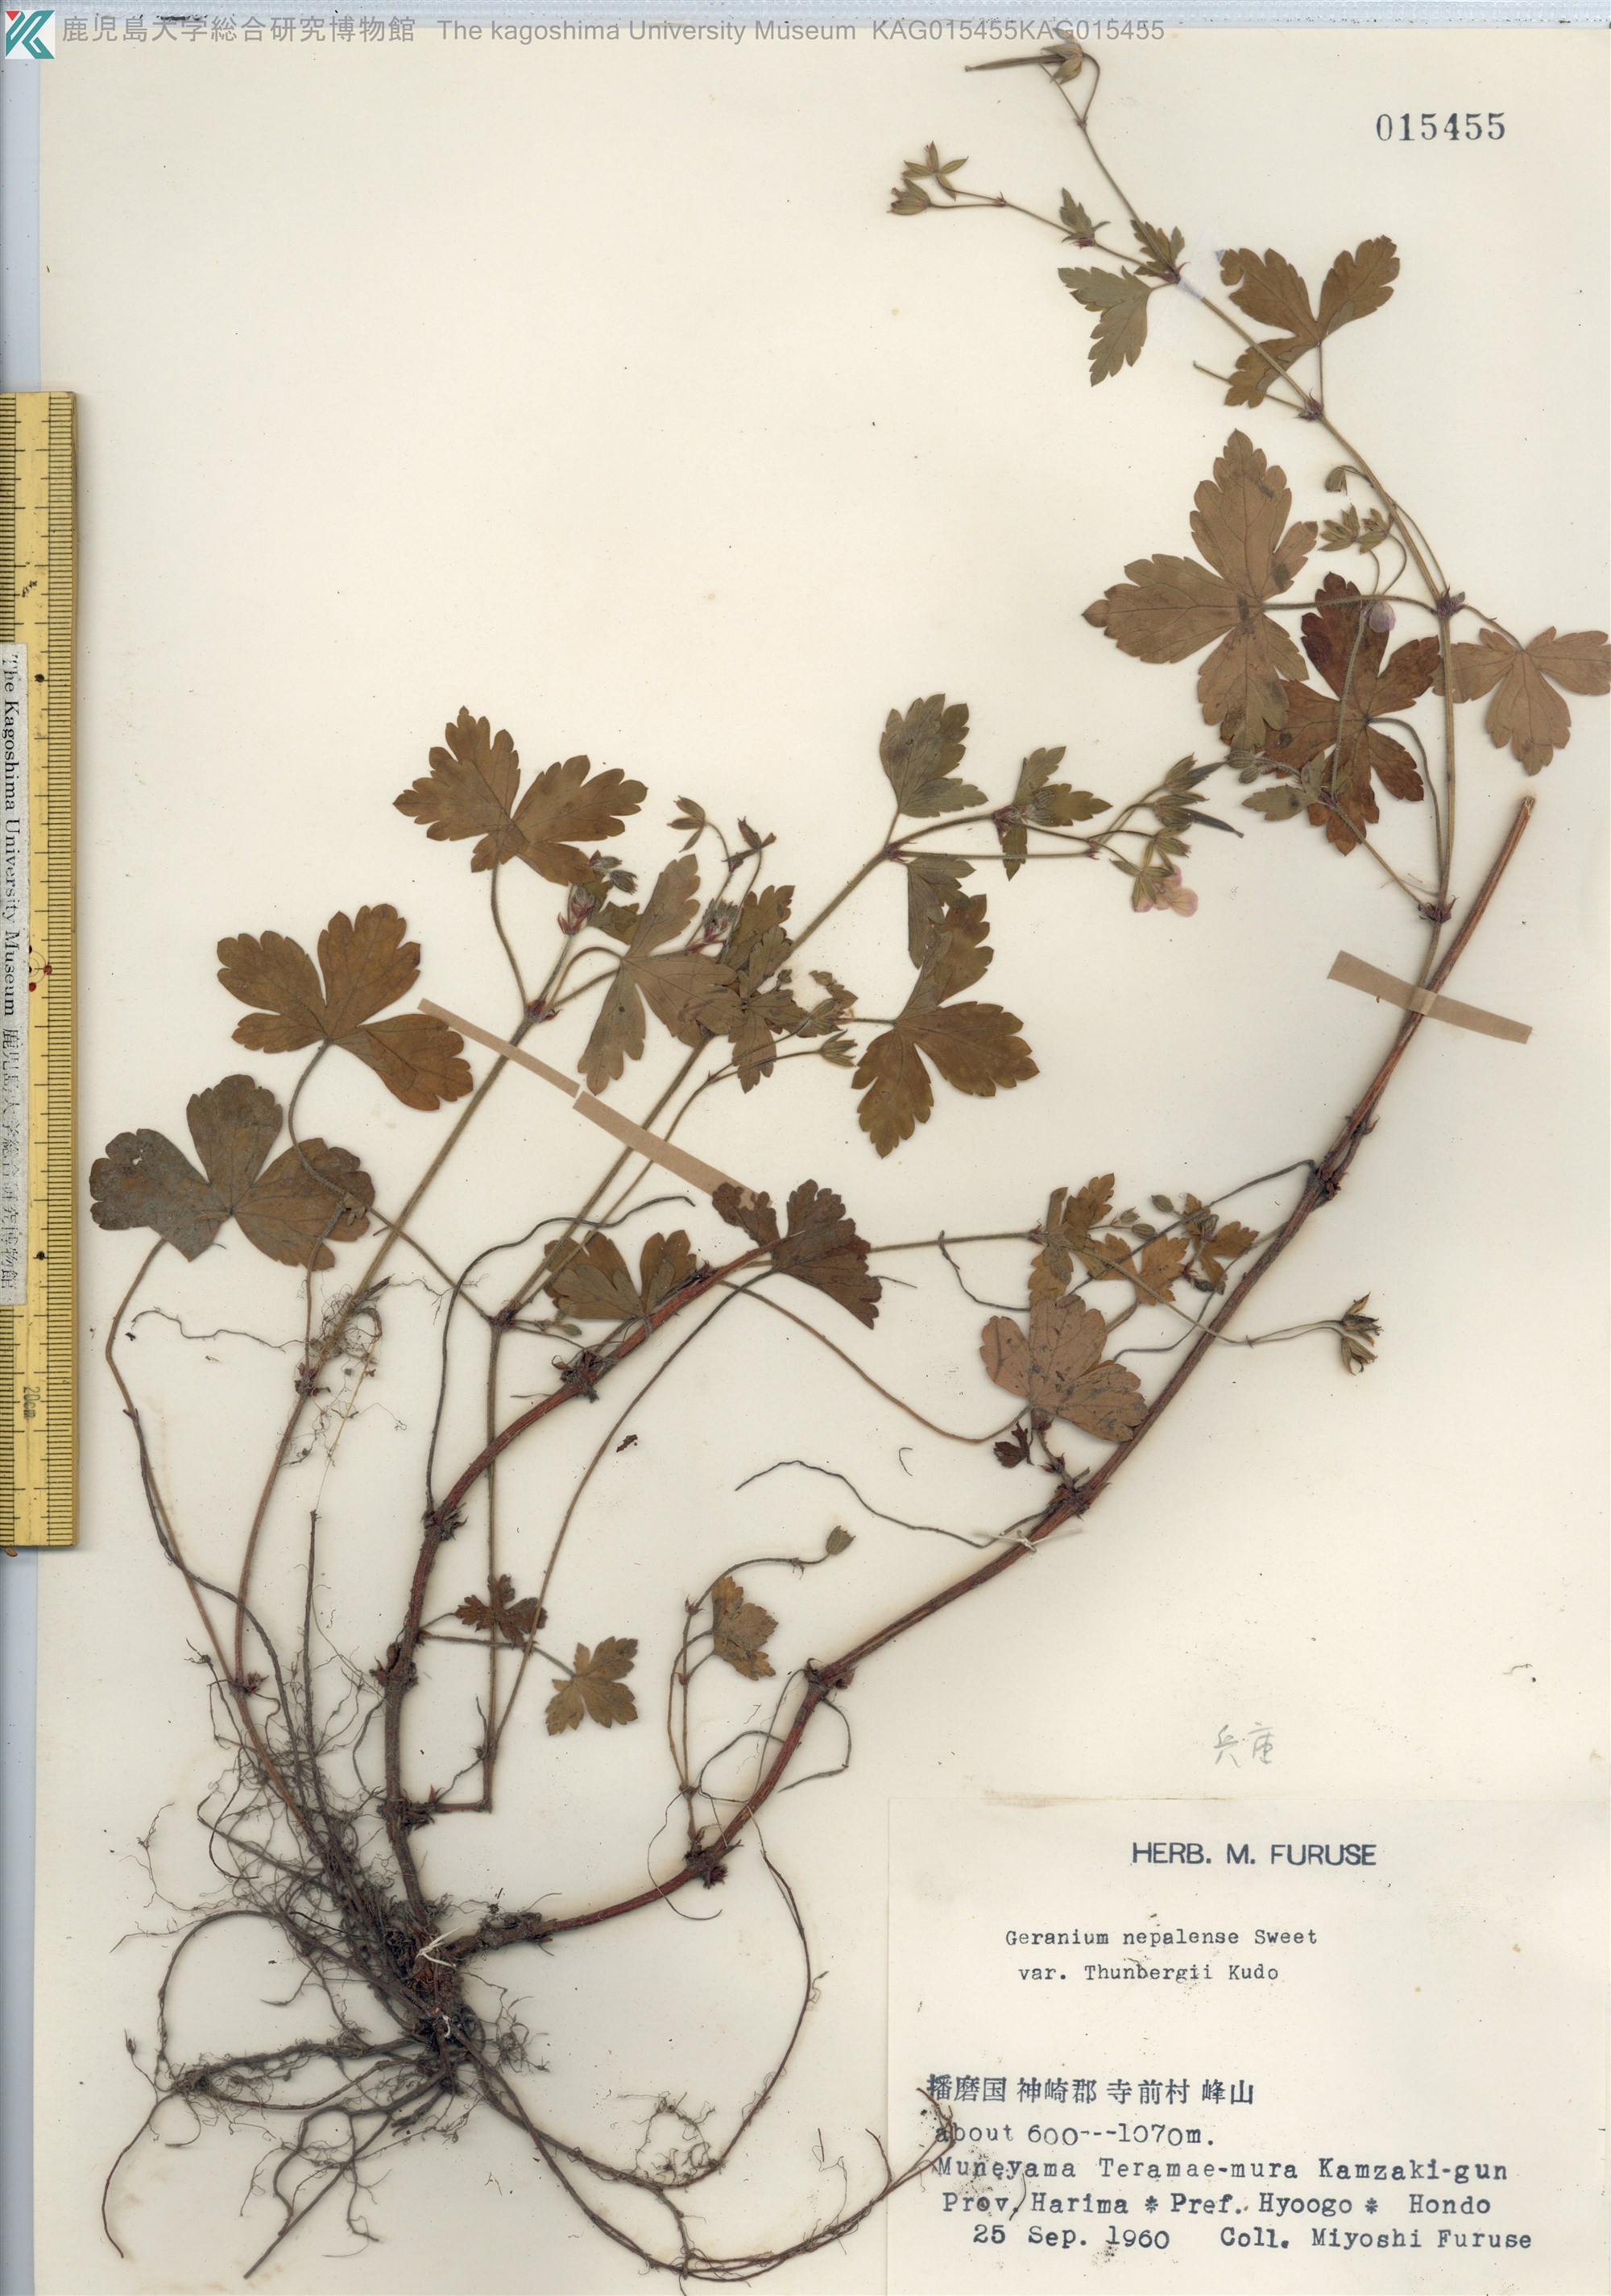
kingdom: Plantae
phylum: Tracheophyta
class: Magnoliopsida
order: Geraniales
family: Geraniaceae
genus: Geranium
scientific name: Geranium thunbergii
